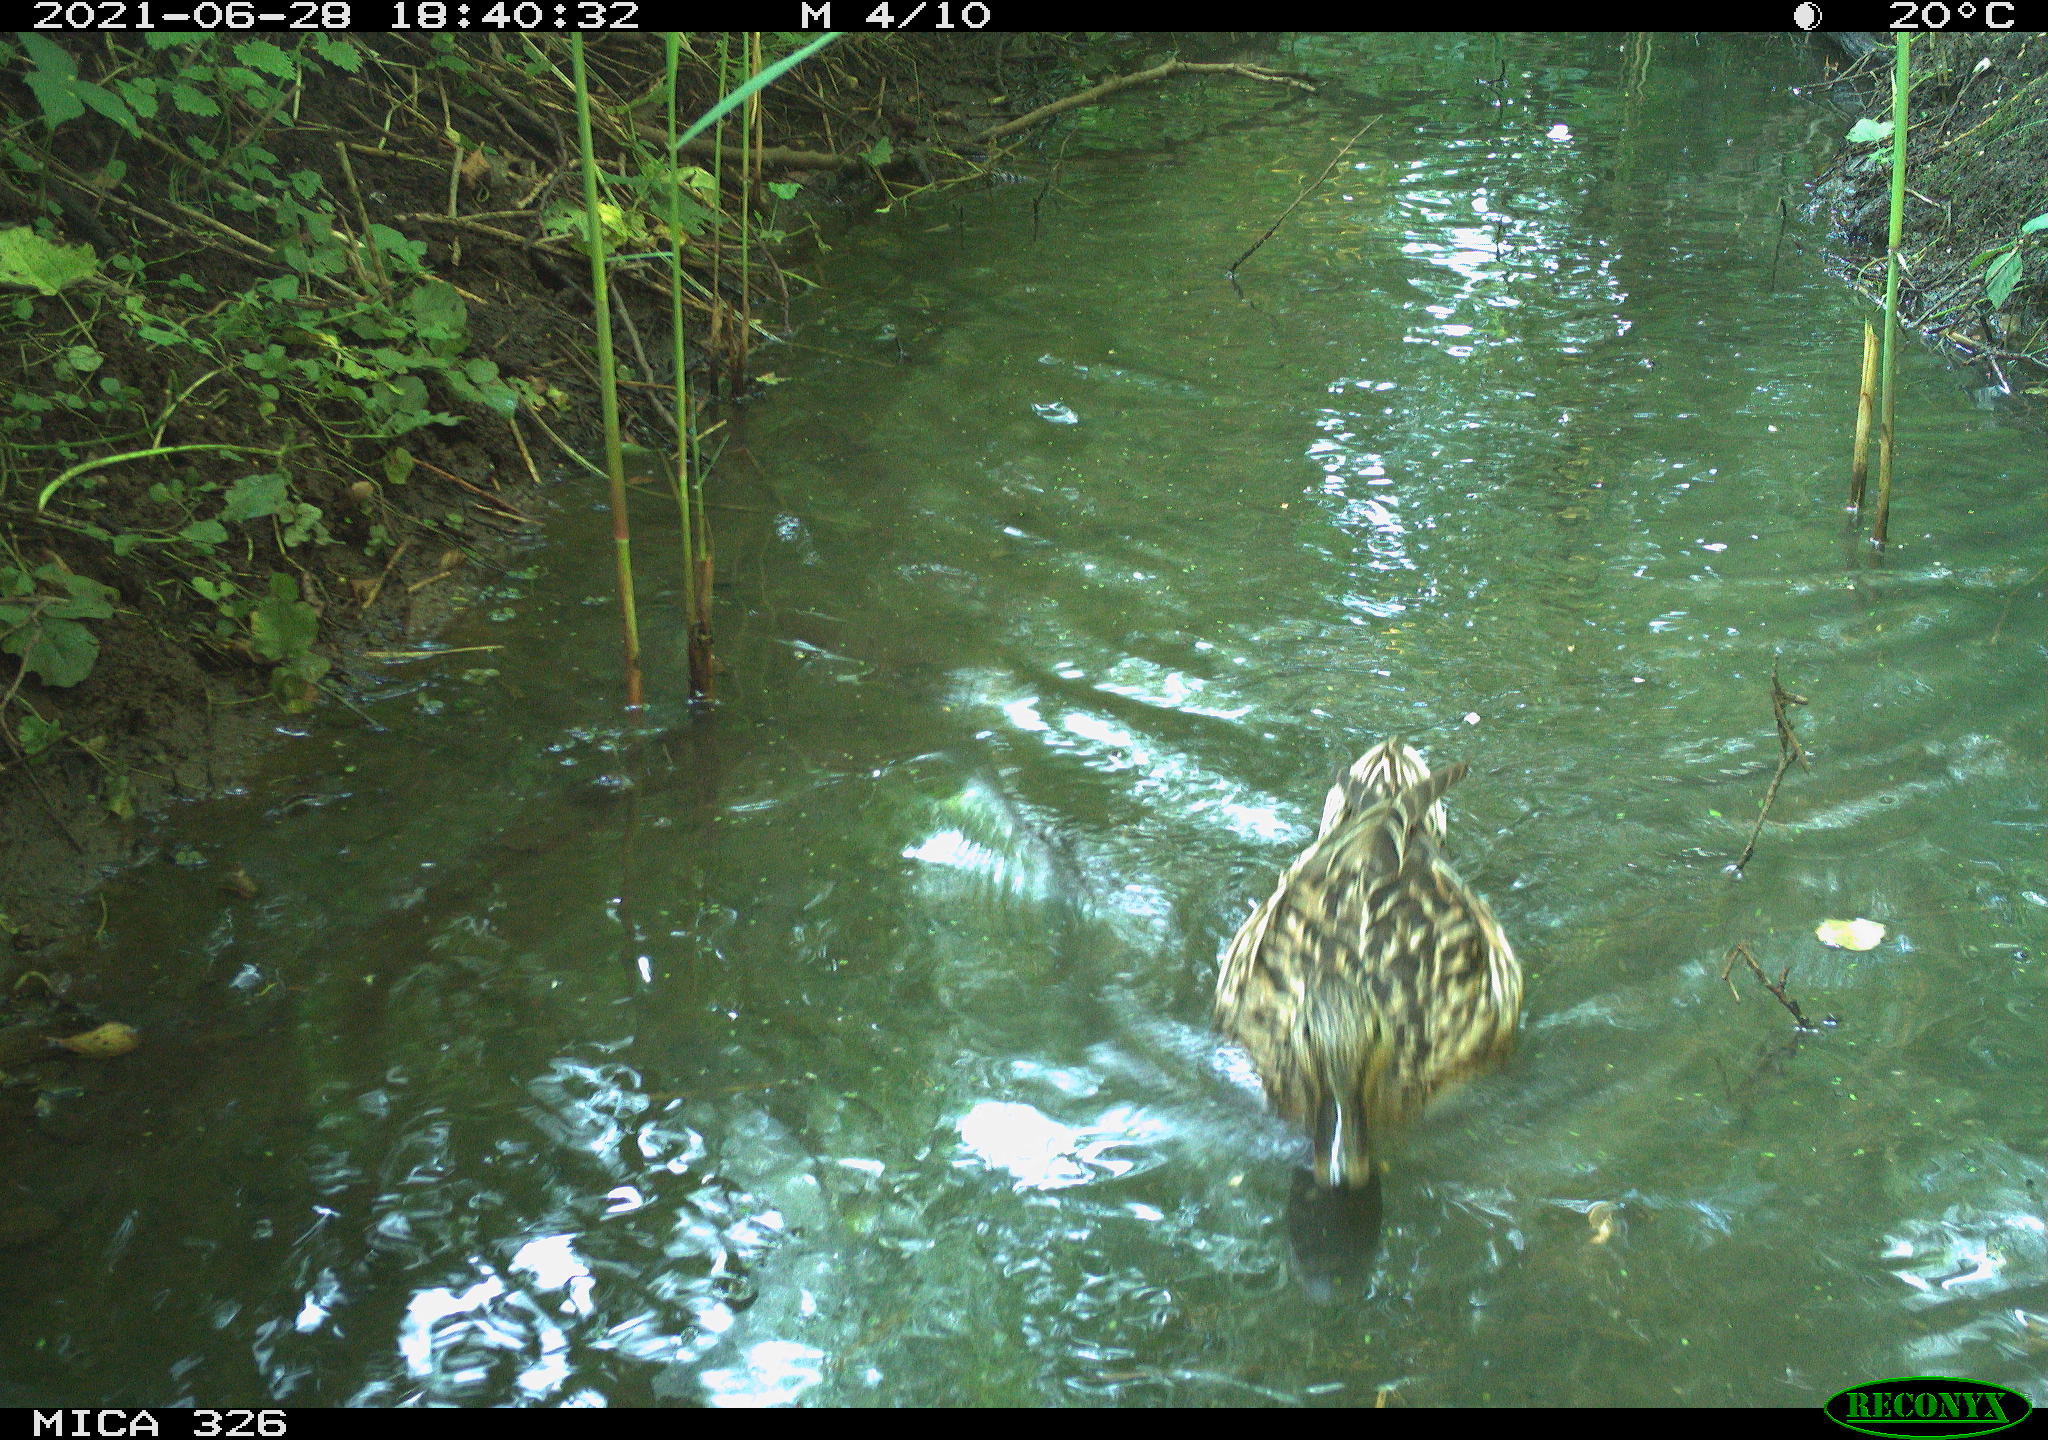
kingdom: Animalia
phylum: Chordata
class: Aves
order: Anseriformes
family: Anatidae
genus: Anas
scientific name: Anas platyrhynchos
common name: Mallard
